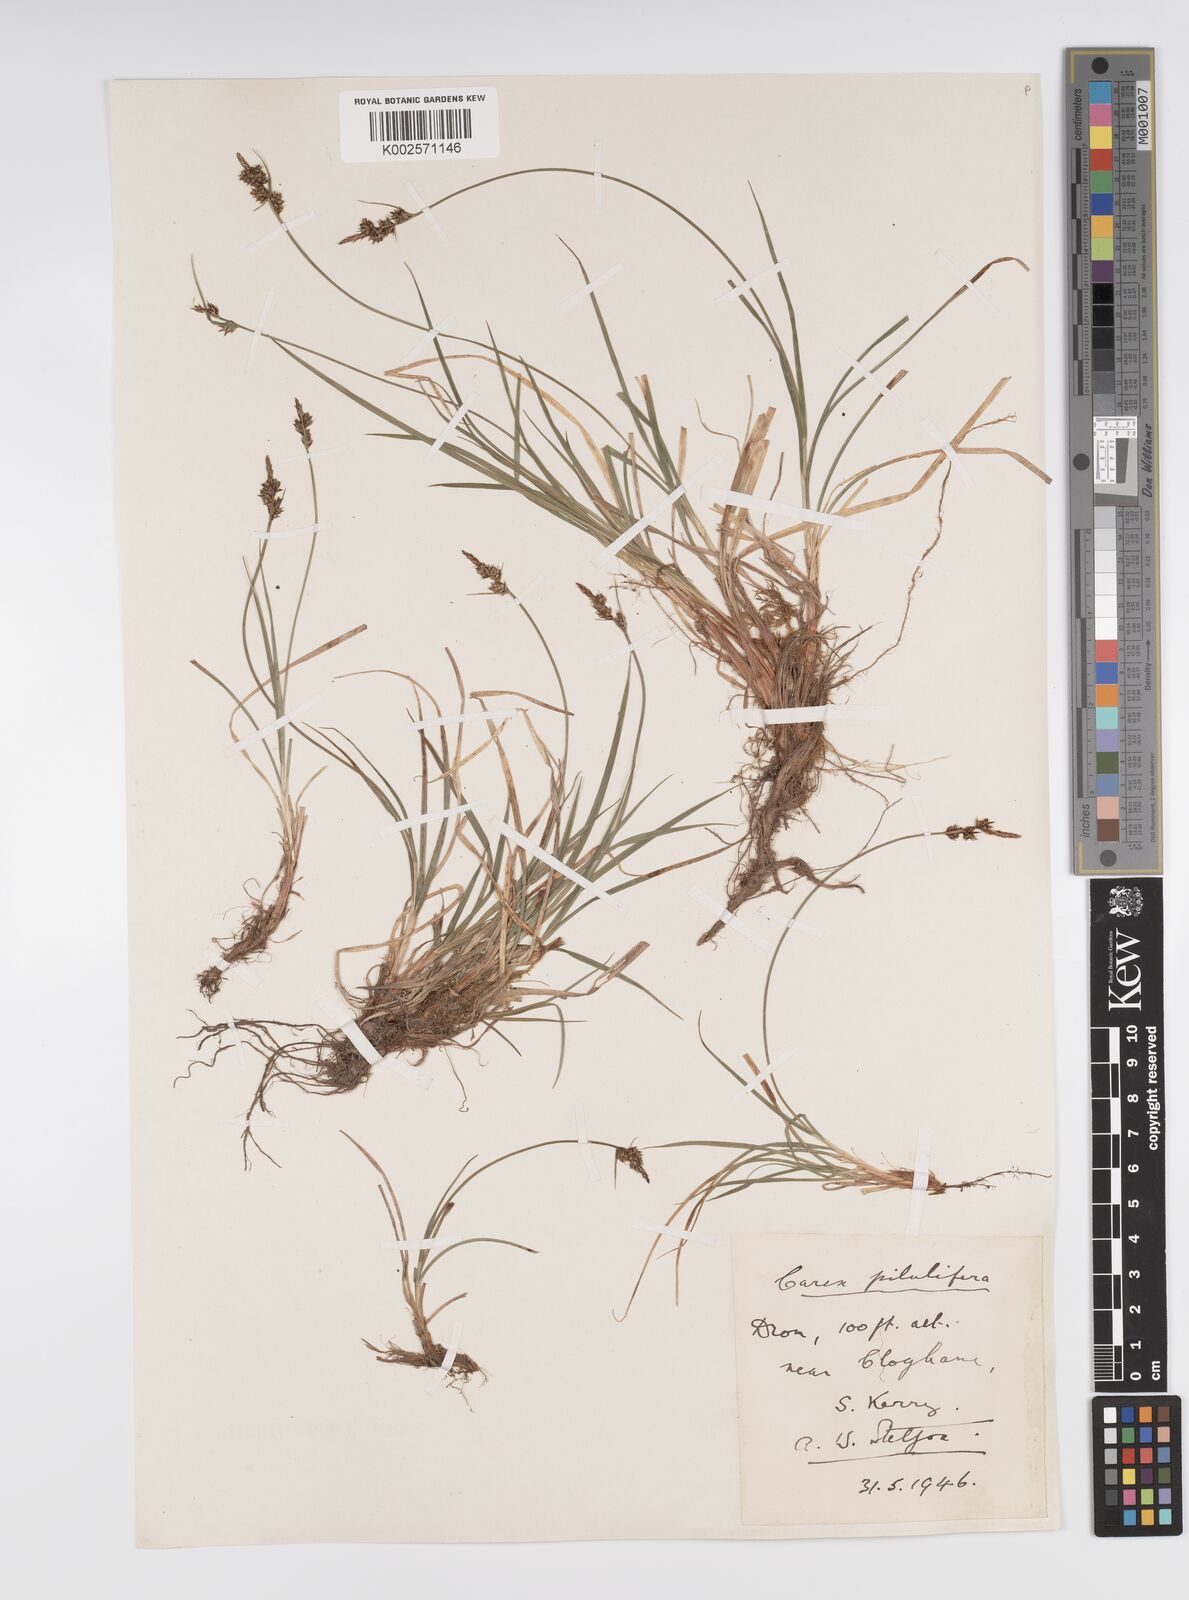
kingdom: Plantae
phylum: Tracheophyta
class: Liliopsida
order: Poales
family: Cyperaceae
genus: Carex
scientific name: Carex pilulifera
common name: Pill sedge
